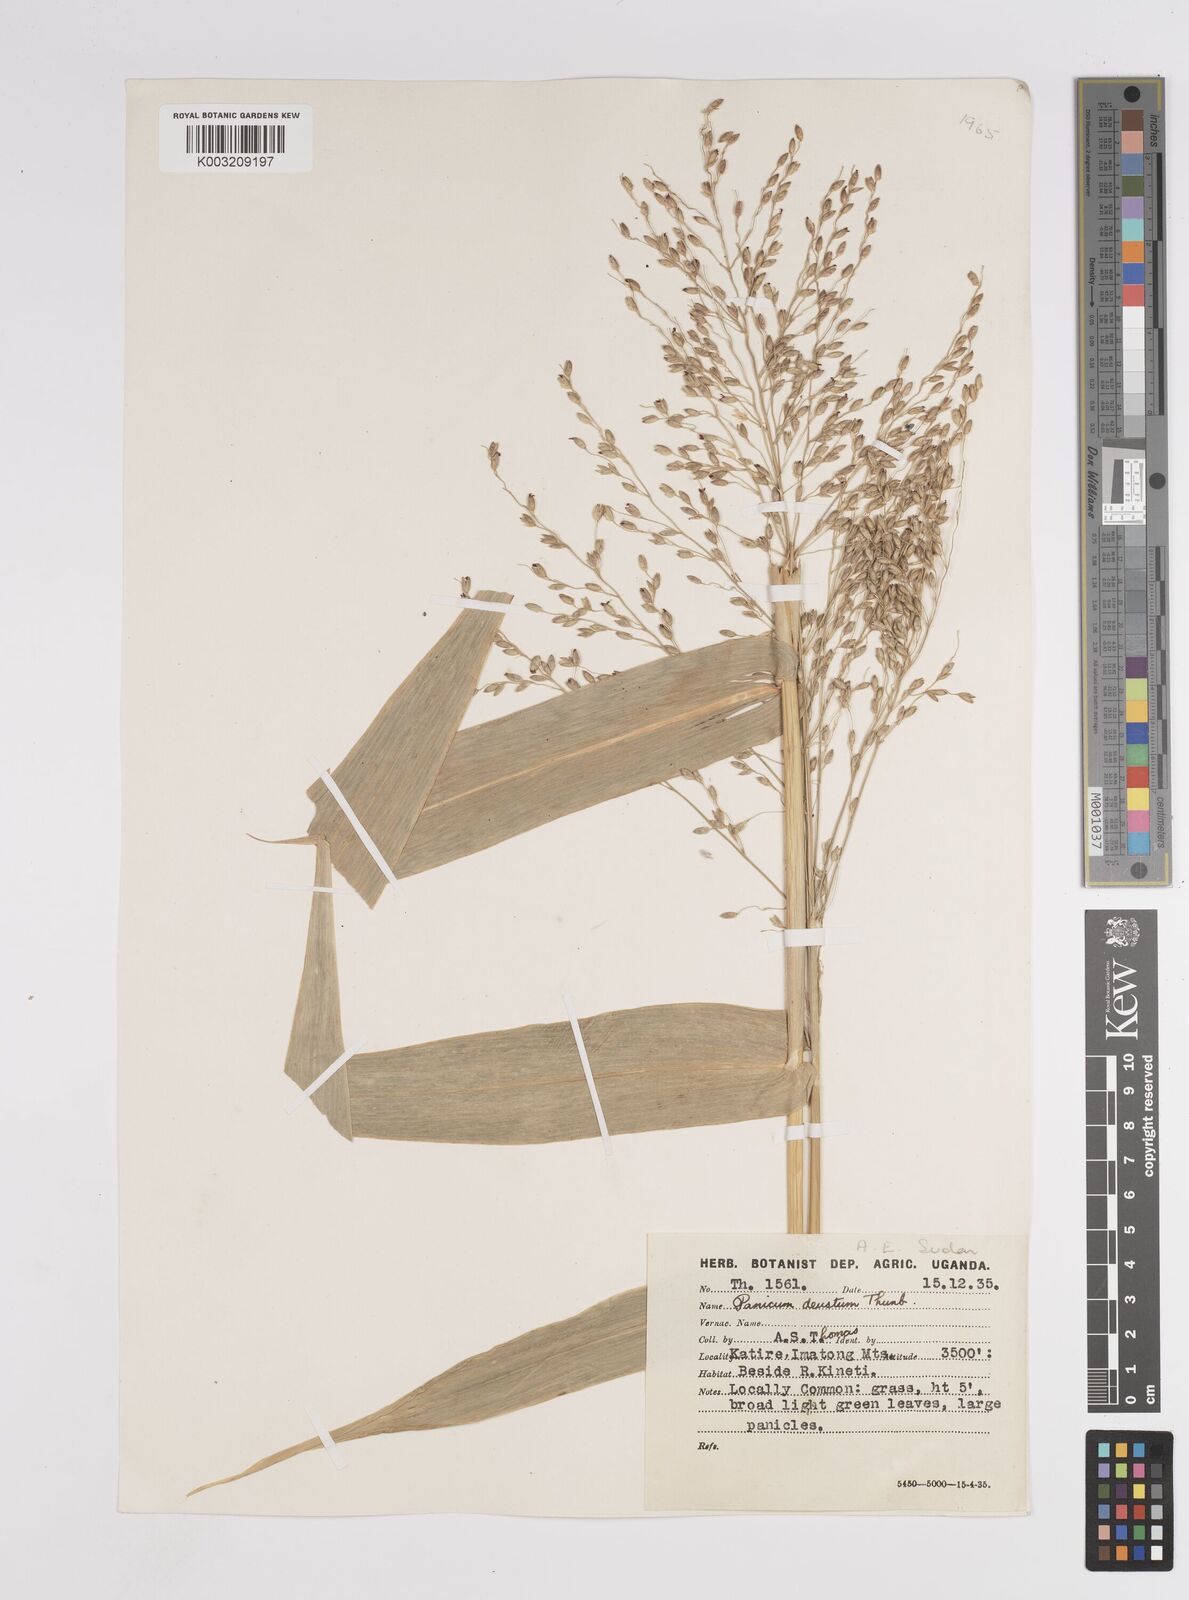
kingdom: Plantae
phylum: Tracheophyta
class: Liliopsida
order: Poales
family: Poaceae
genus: Panicum
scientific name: Panicum
